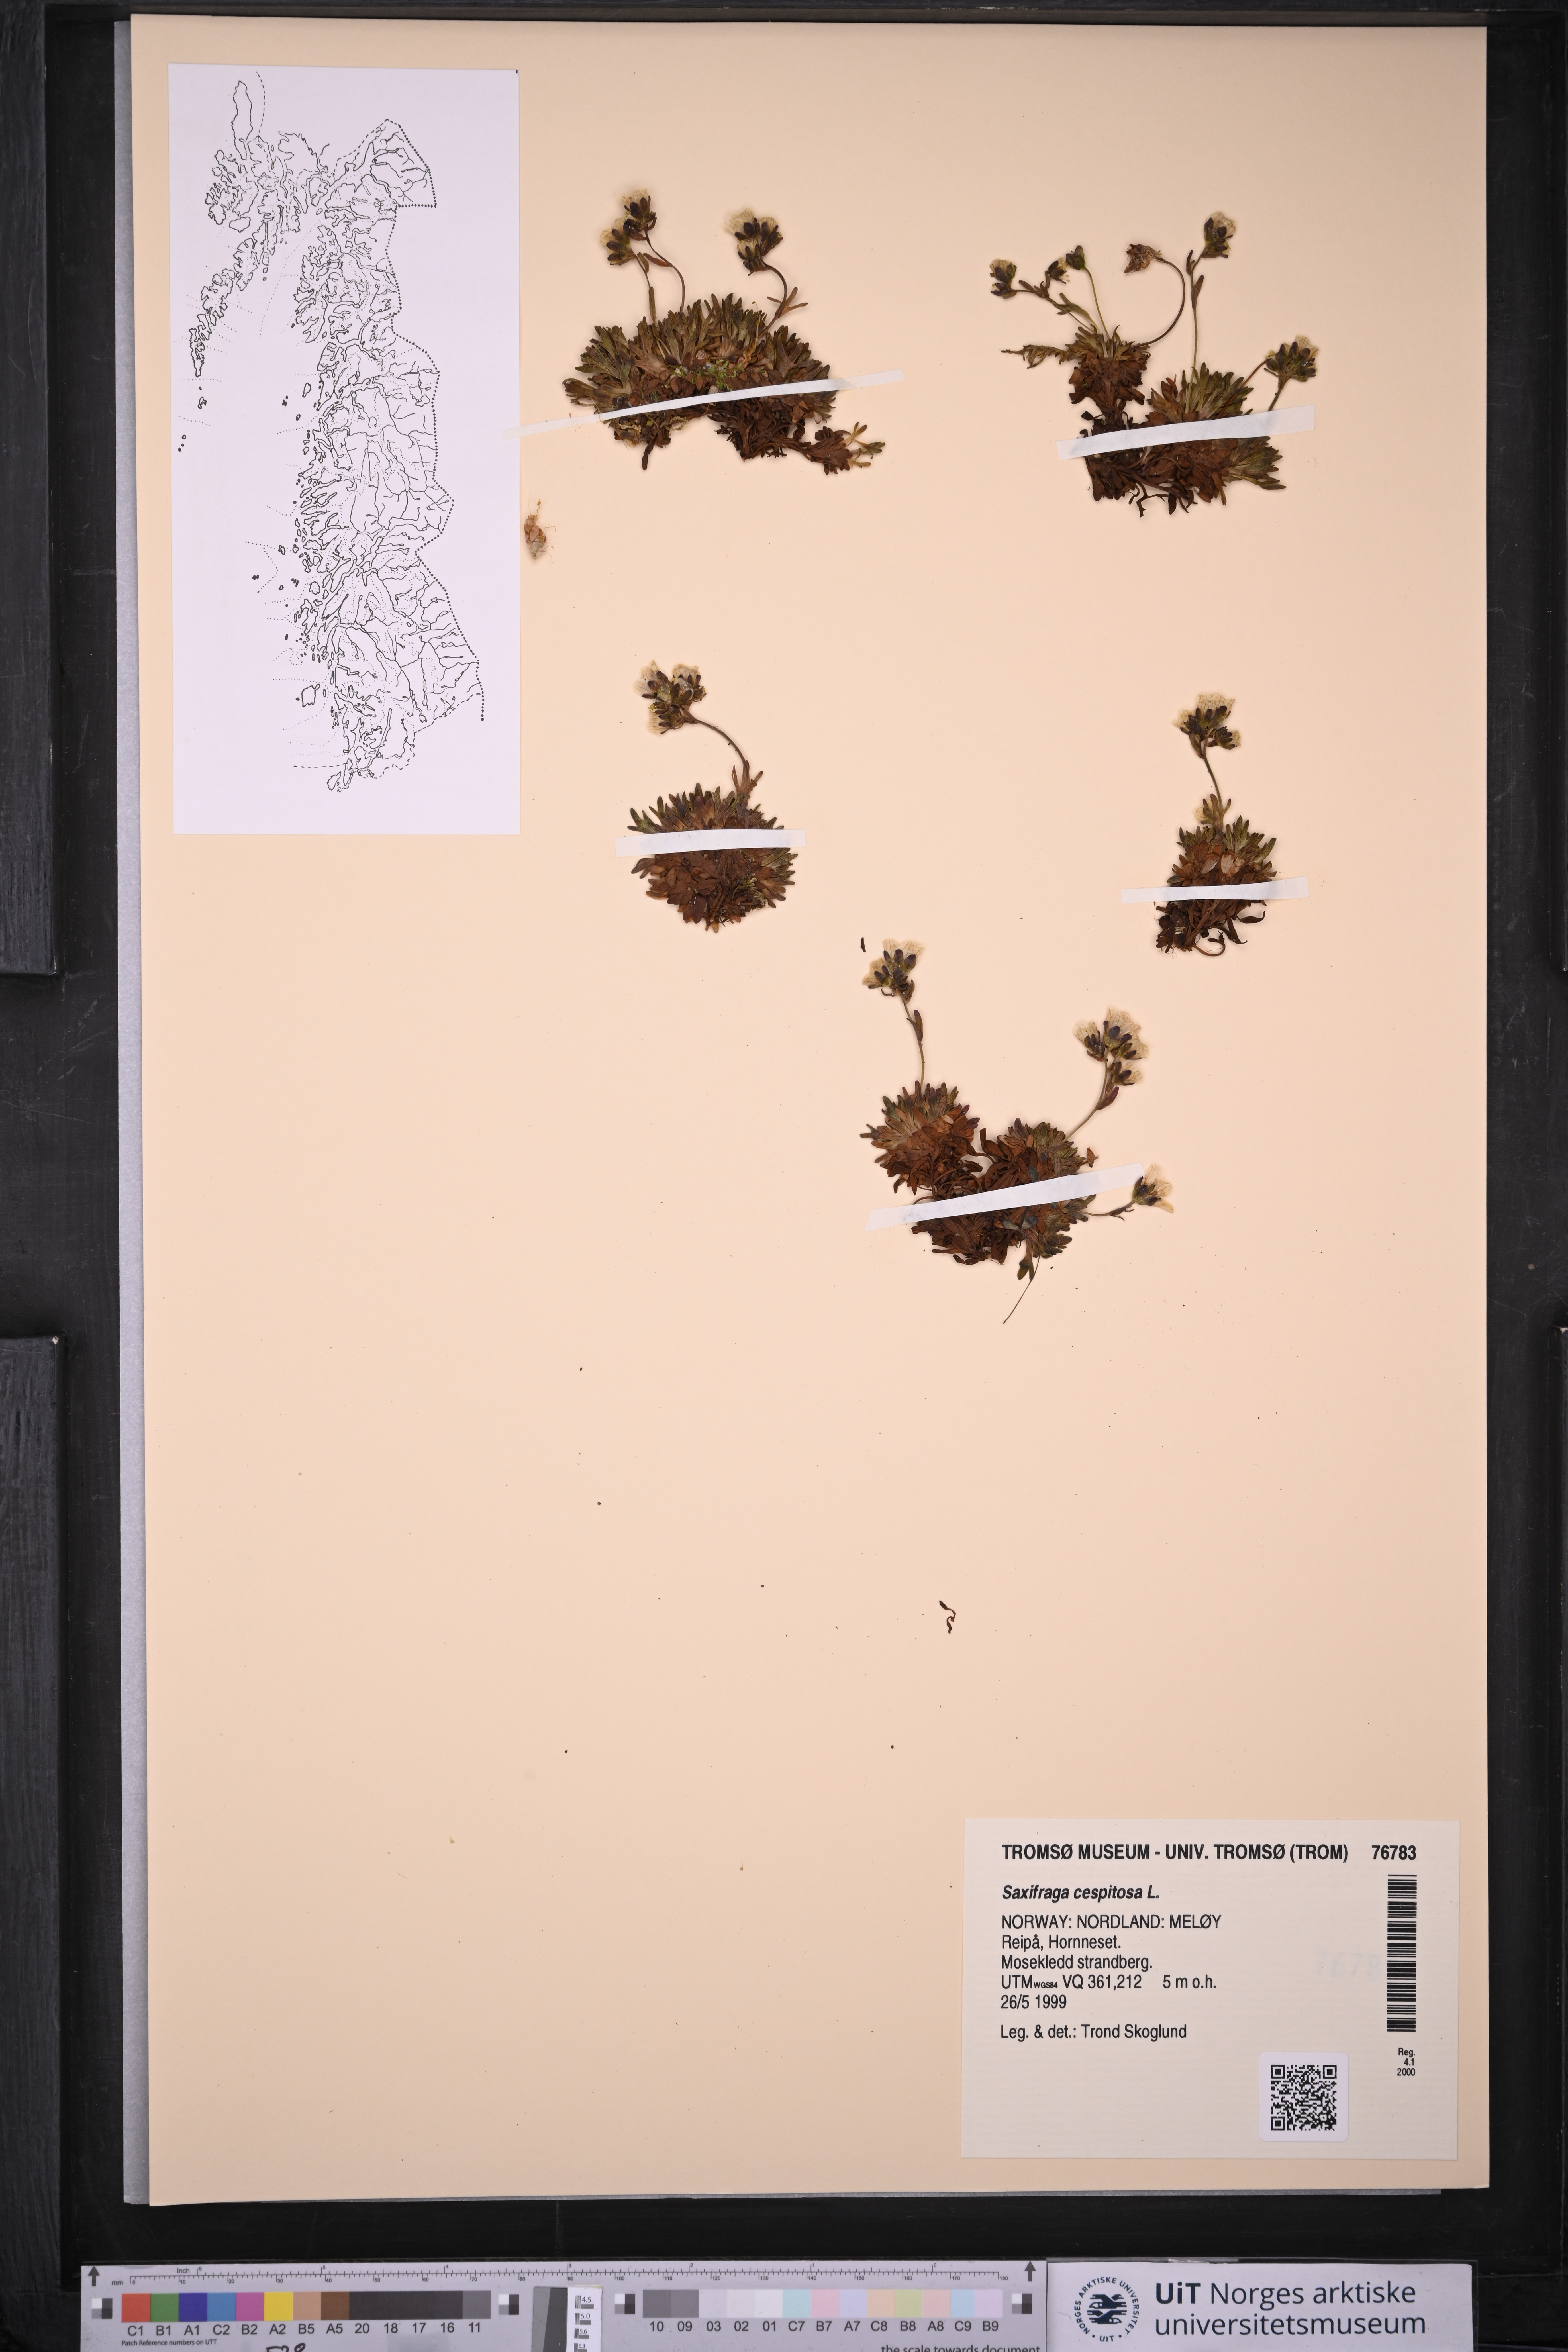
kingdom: Plantae
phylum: Tracheophyta
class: Magnoliopsida
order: Saxifragales
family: Saxifragaceae
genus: Saxifraga
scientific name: Saxifraga cespitosa
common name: Tufted saxifrage
